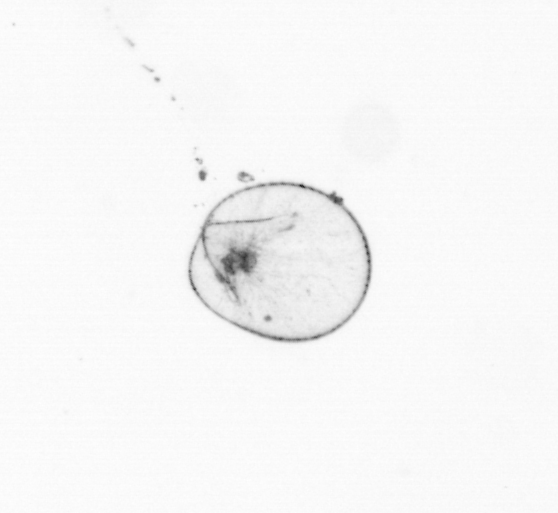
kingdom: Chromista
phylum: Myzozoa
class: Dinophyceae
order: Noctilucales
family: Noctilucaceae
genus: Noctiluca
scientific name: Noctiluca scintillans
